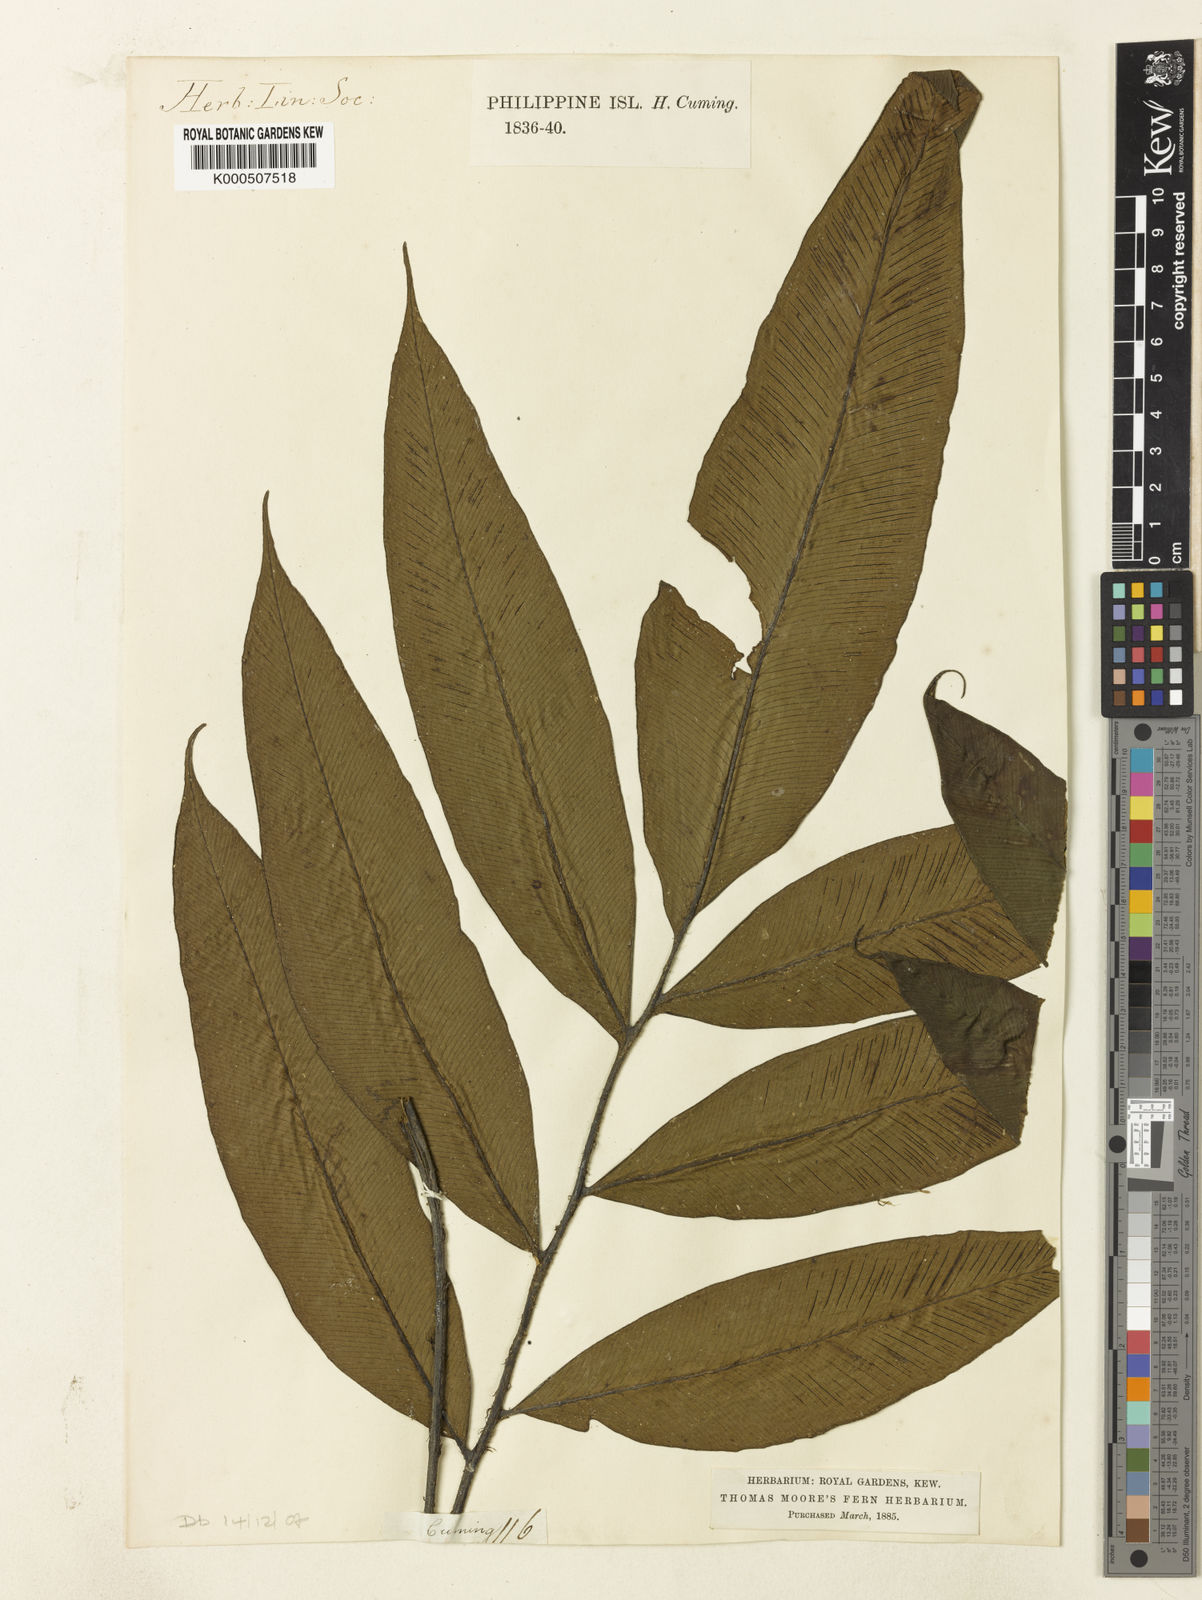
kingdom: Plantae
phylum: Tracheophyta
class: Polypodiopsida
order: Polypodiales
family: Athyriaceae
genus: Diplazium
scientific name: Diplazium cumingii
